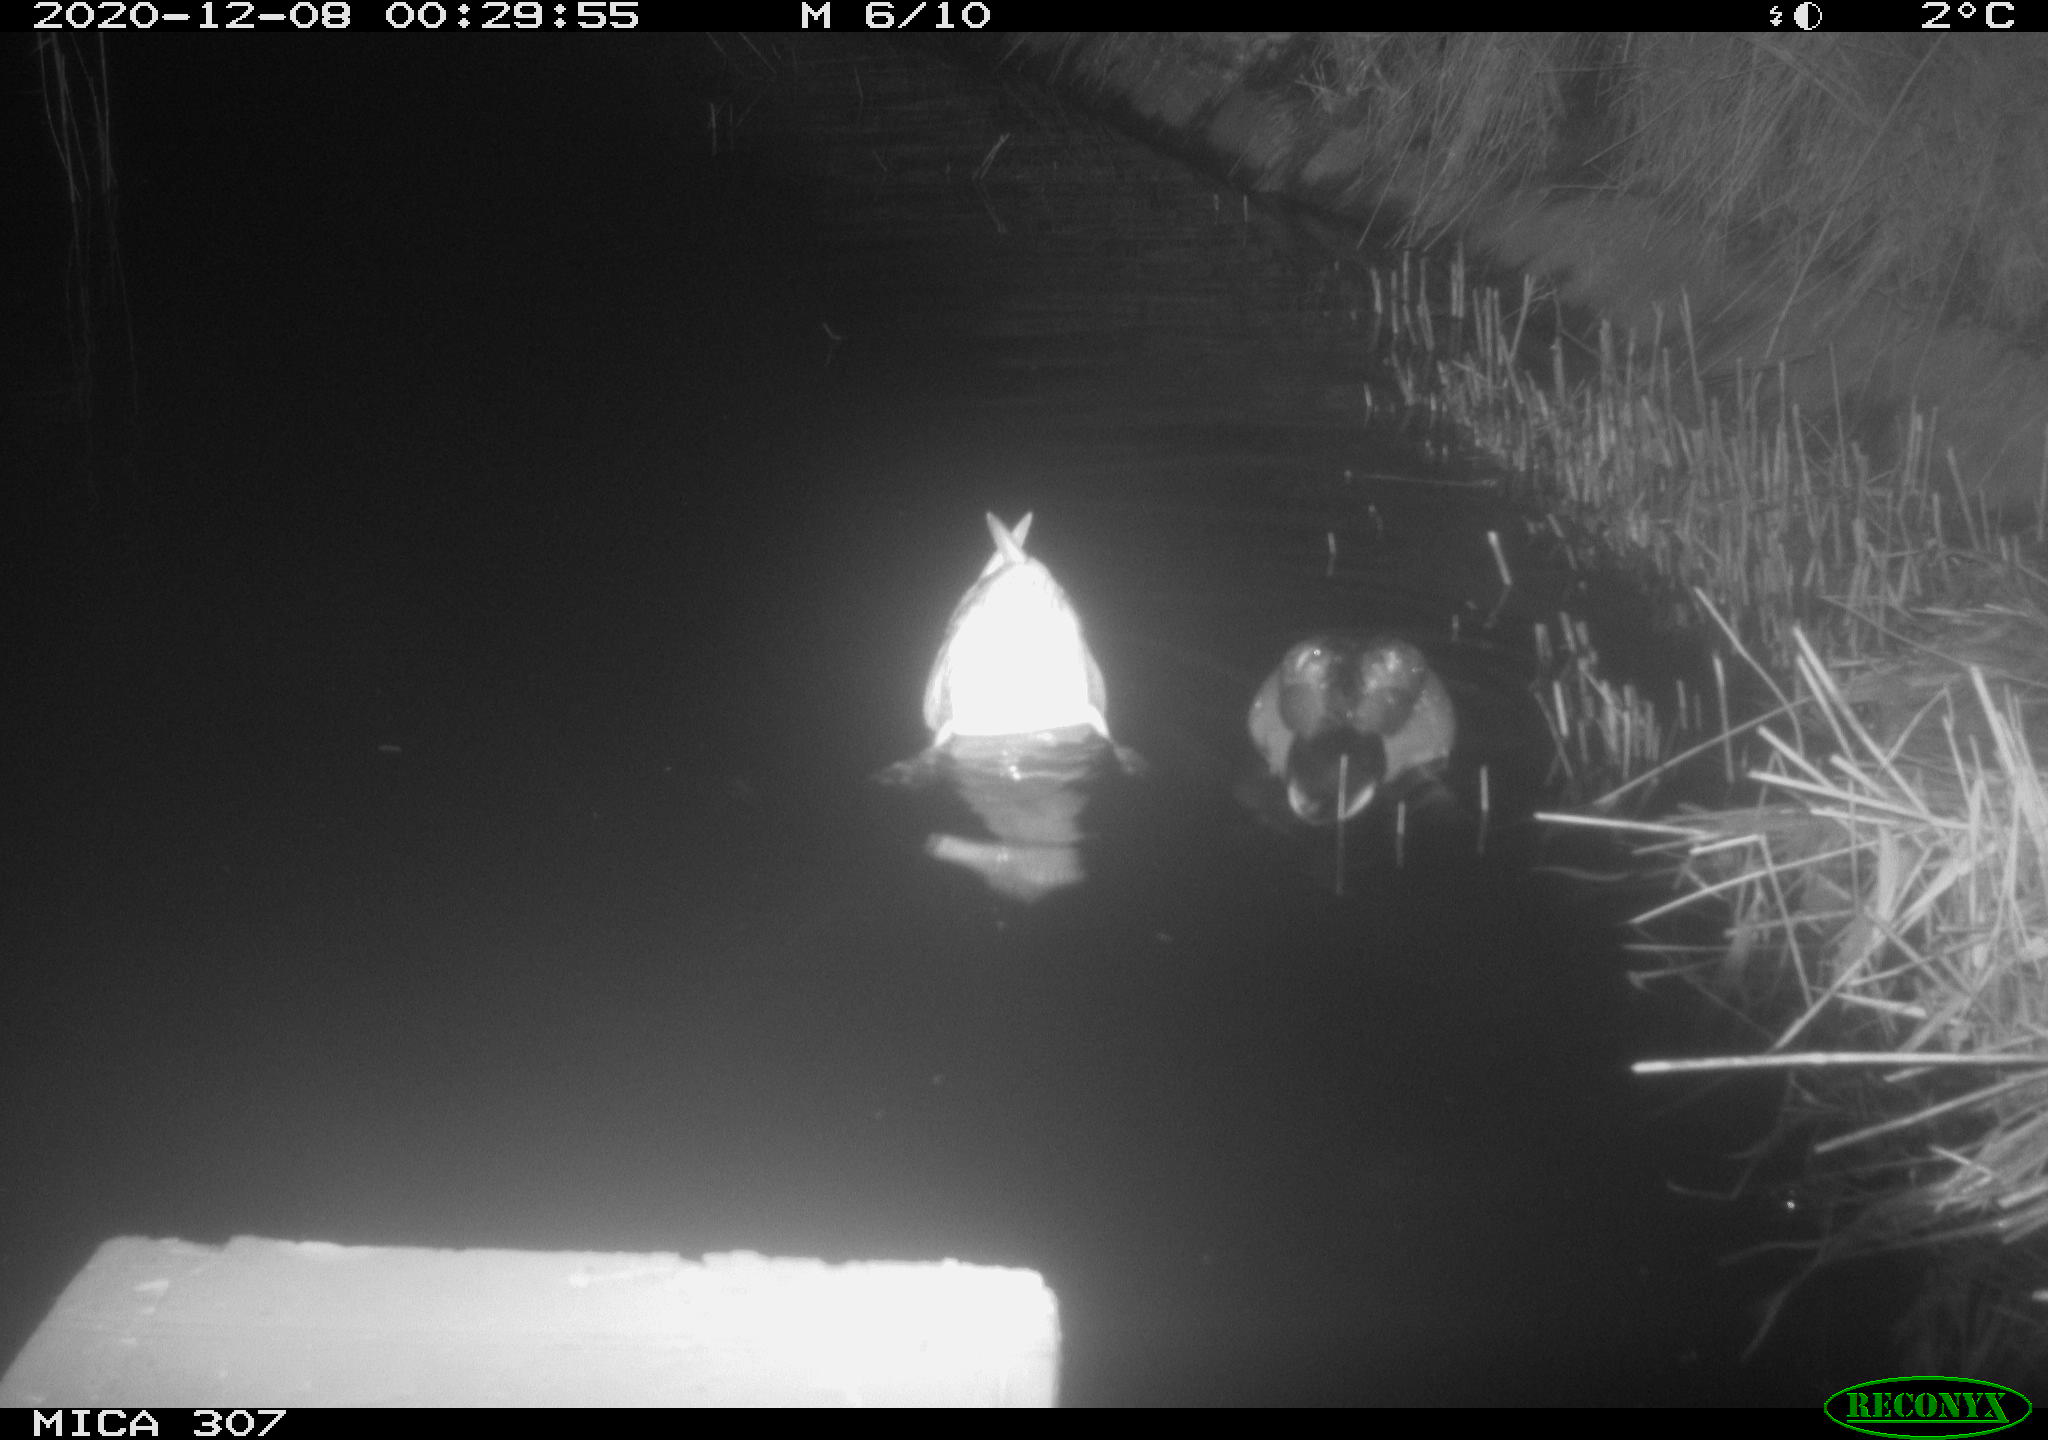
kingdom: Animalia
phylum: Chordata
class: Aves
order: Anseriformes
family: Anatidae
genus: Anas
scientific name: Anas platyrhynchos
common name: Mallard
